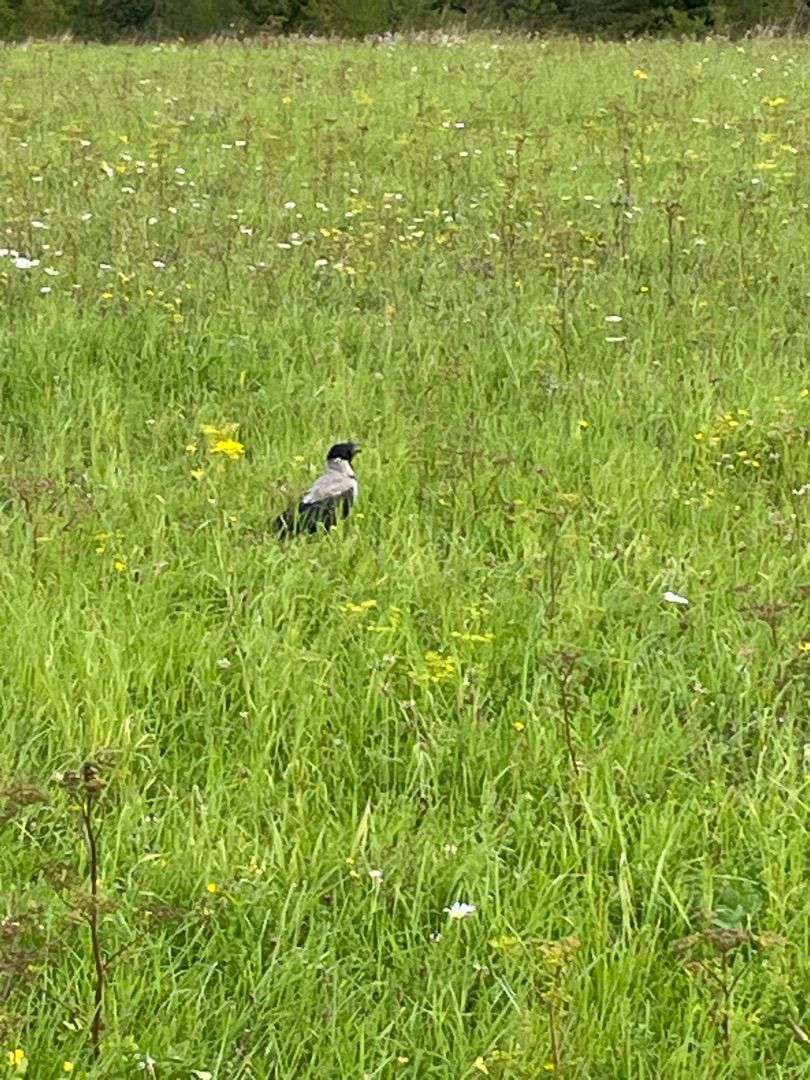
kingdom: Animalia
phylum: Chordata
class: Aves
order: Passeriformes
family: Corvidae
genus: Corvus
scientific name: Corvus cornix
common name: Gråkrage
